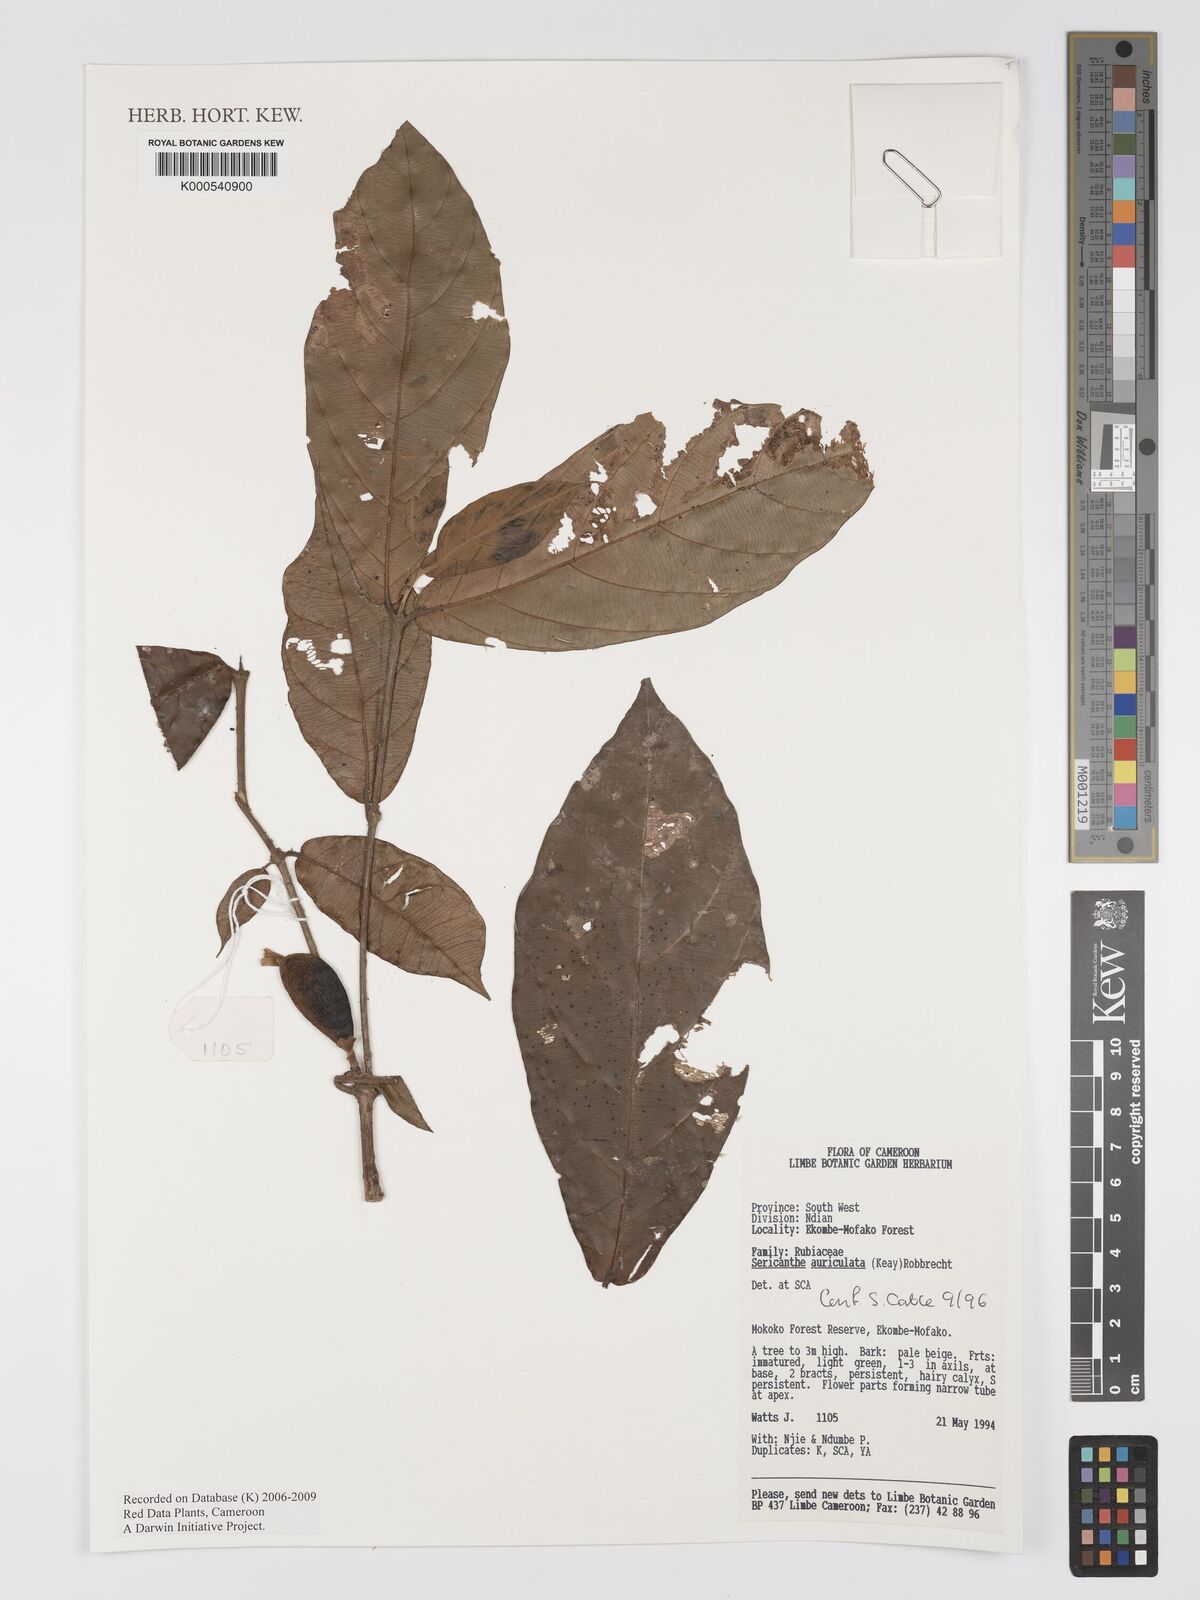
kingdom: Plantae
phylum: Tracheophyta
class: Magnoliopsida
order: Gentianales
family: Rubiaceae
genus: Sericanthe
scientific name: Sericanthe auriculata
